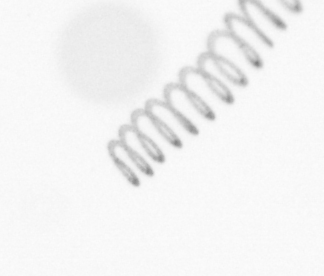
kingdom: Chromista
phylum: Ochrophyta
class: Bacillariophyceae
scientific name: Bacillariophyceae
